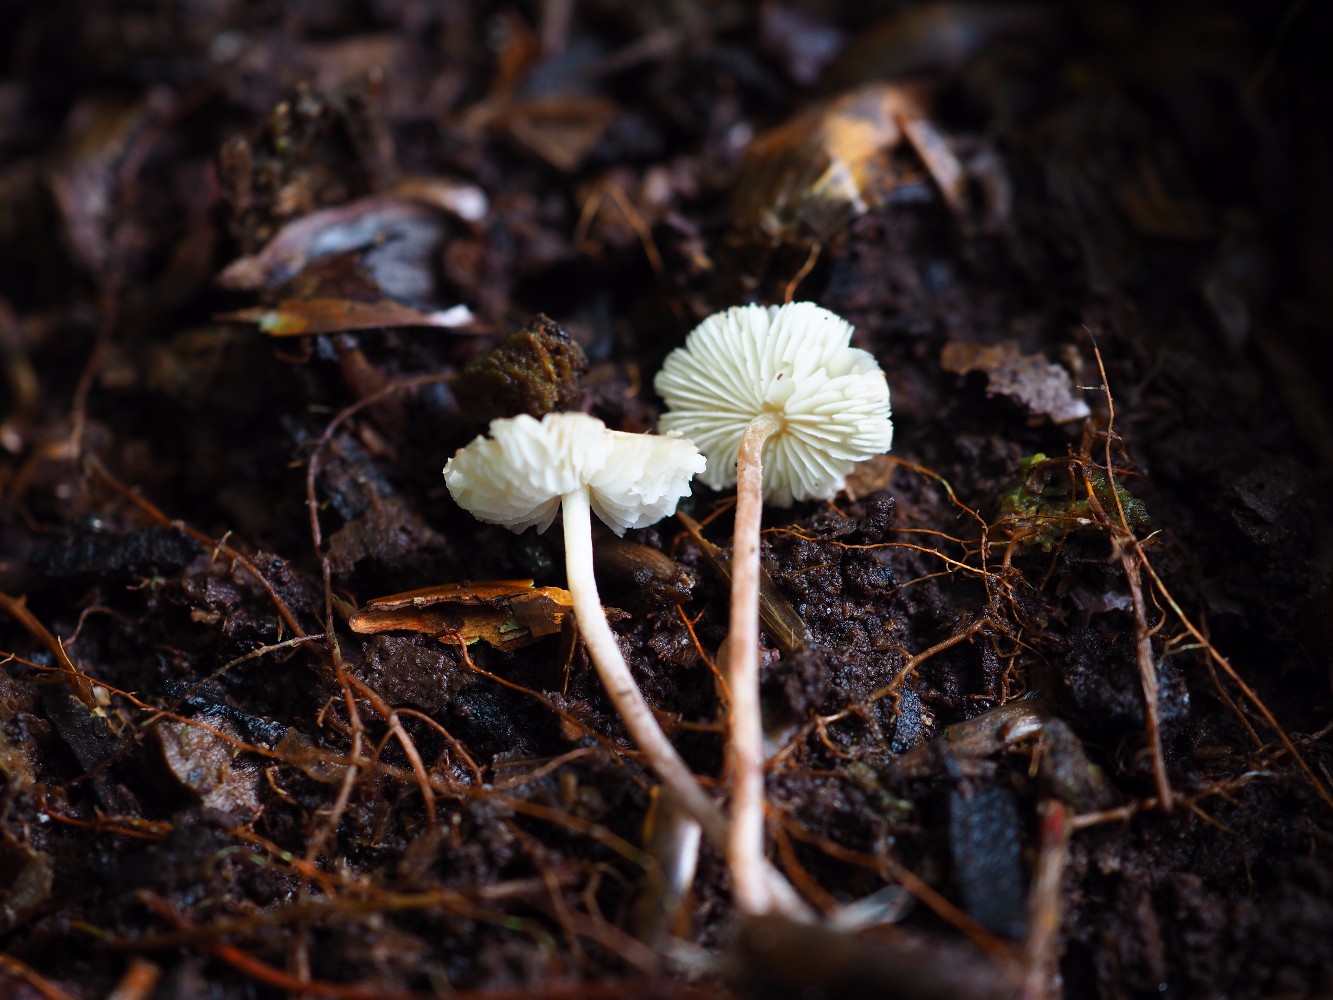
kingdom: Fungi
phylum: Basidiomycota
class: Agaricomycetes
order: Agaricales
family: Agaricaceae
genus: Cystolepiota
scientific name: Cystolepiota seminuda
